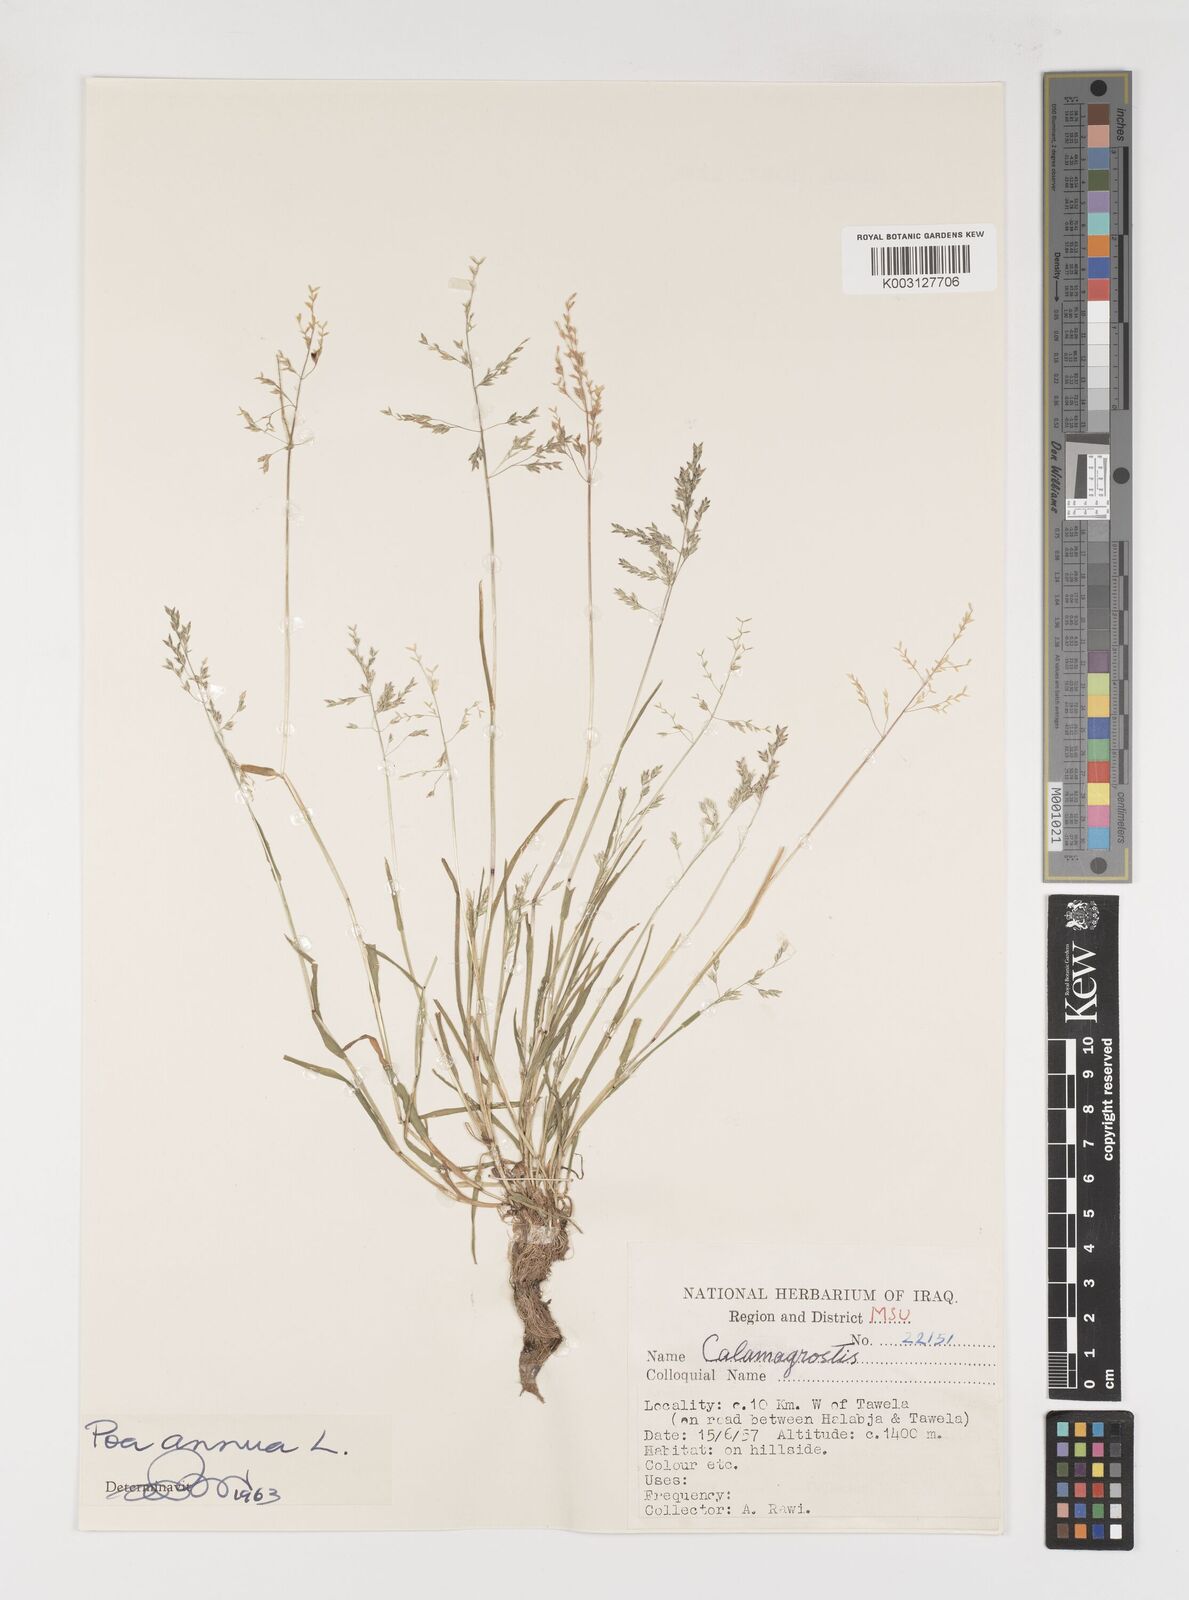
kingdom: Plantae
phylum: Tracheophyta
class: Liliopsida
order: Poales
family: Poaceae
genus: Poa
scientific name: Poa annua
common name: Annual bluegrass
